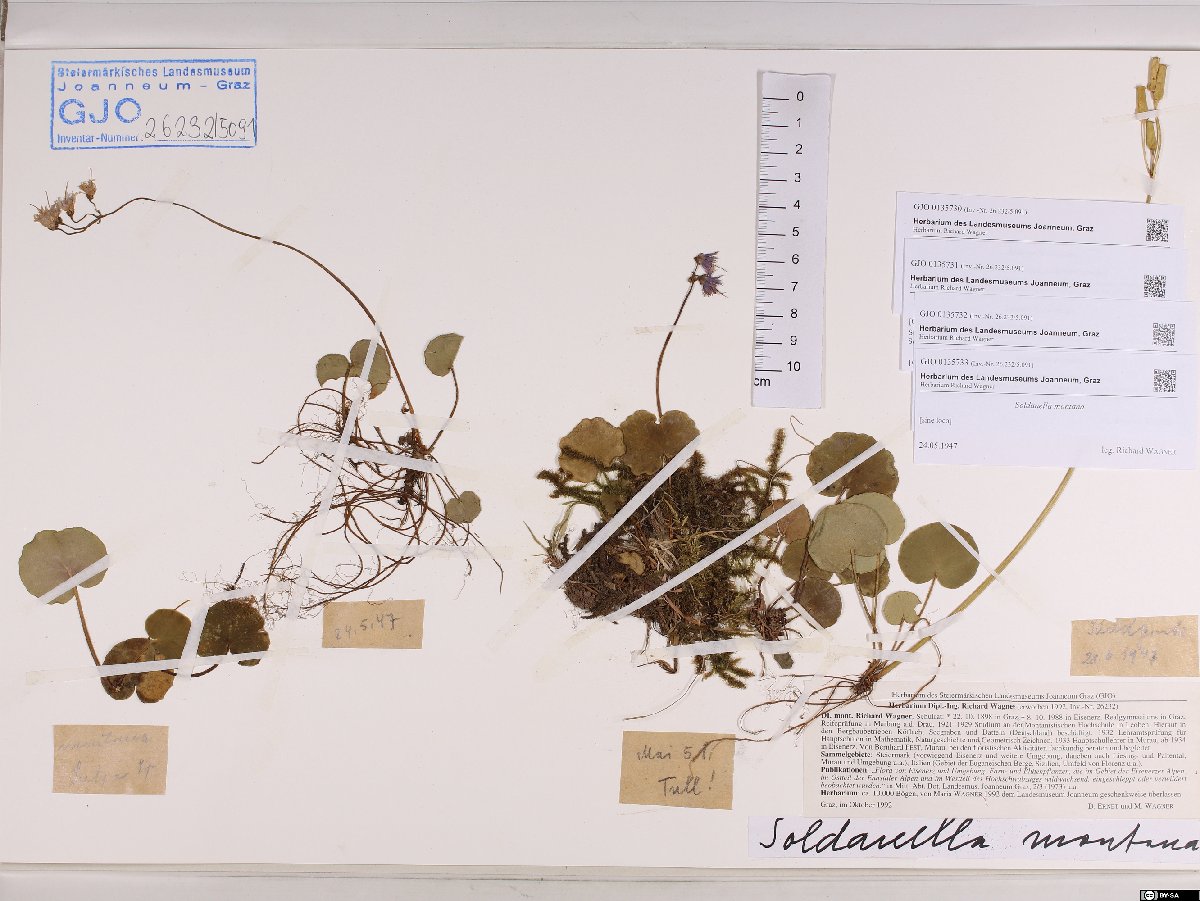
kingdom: Plantae
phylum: Tracheophyta
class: Magnoliopsida
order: Ericales
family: Primulaceae
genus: Soldanella
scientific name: Soldanella montana
